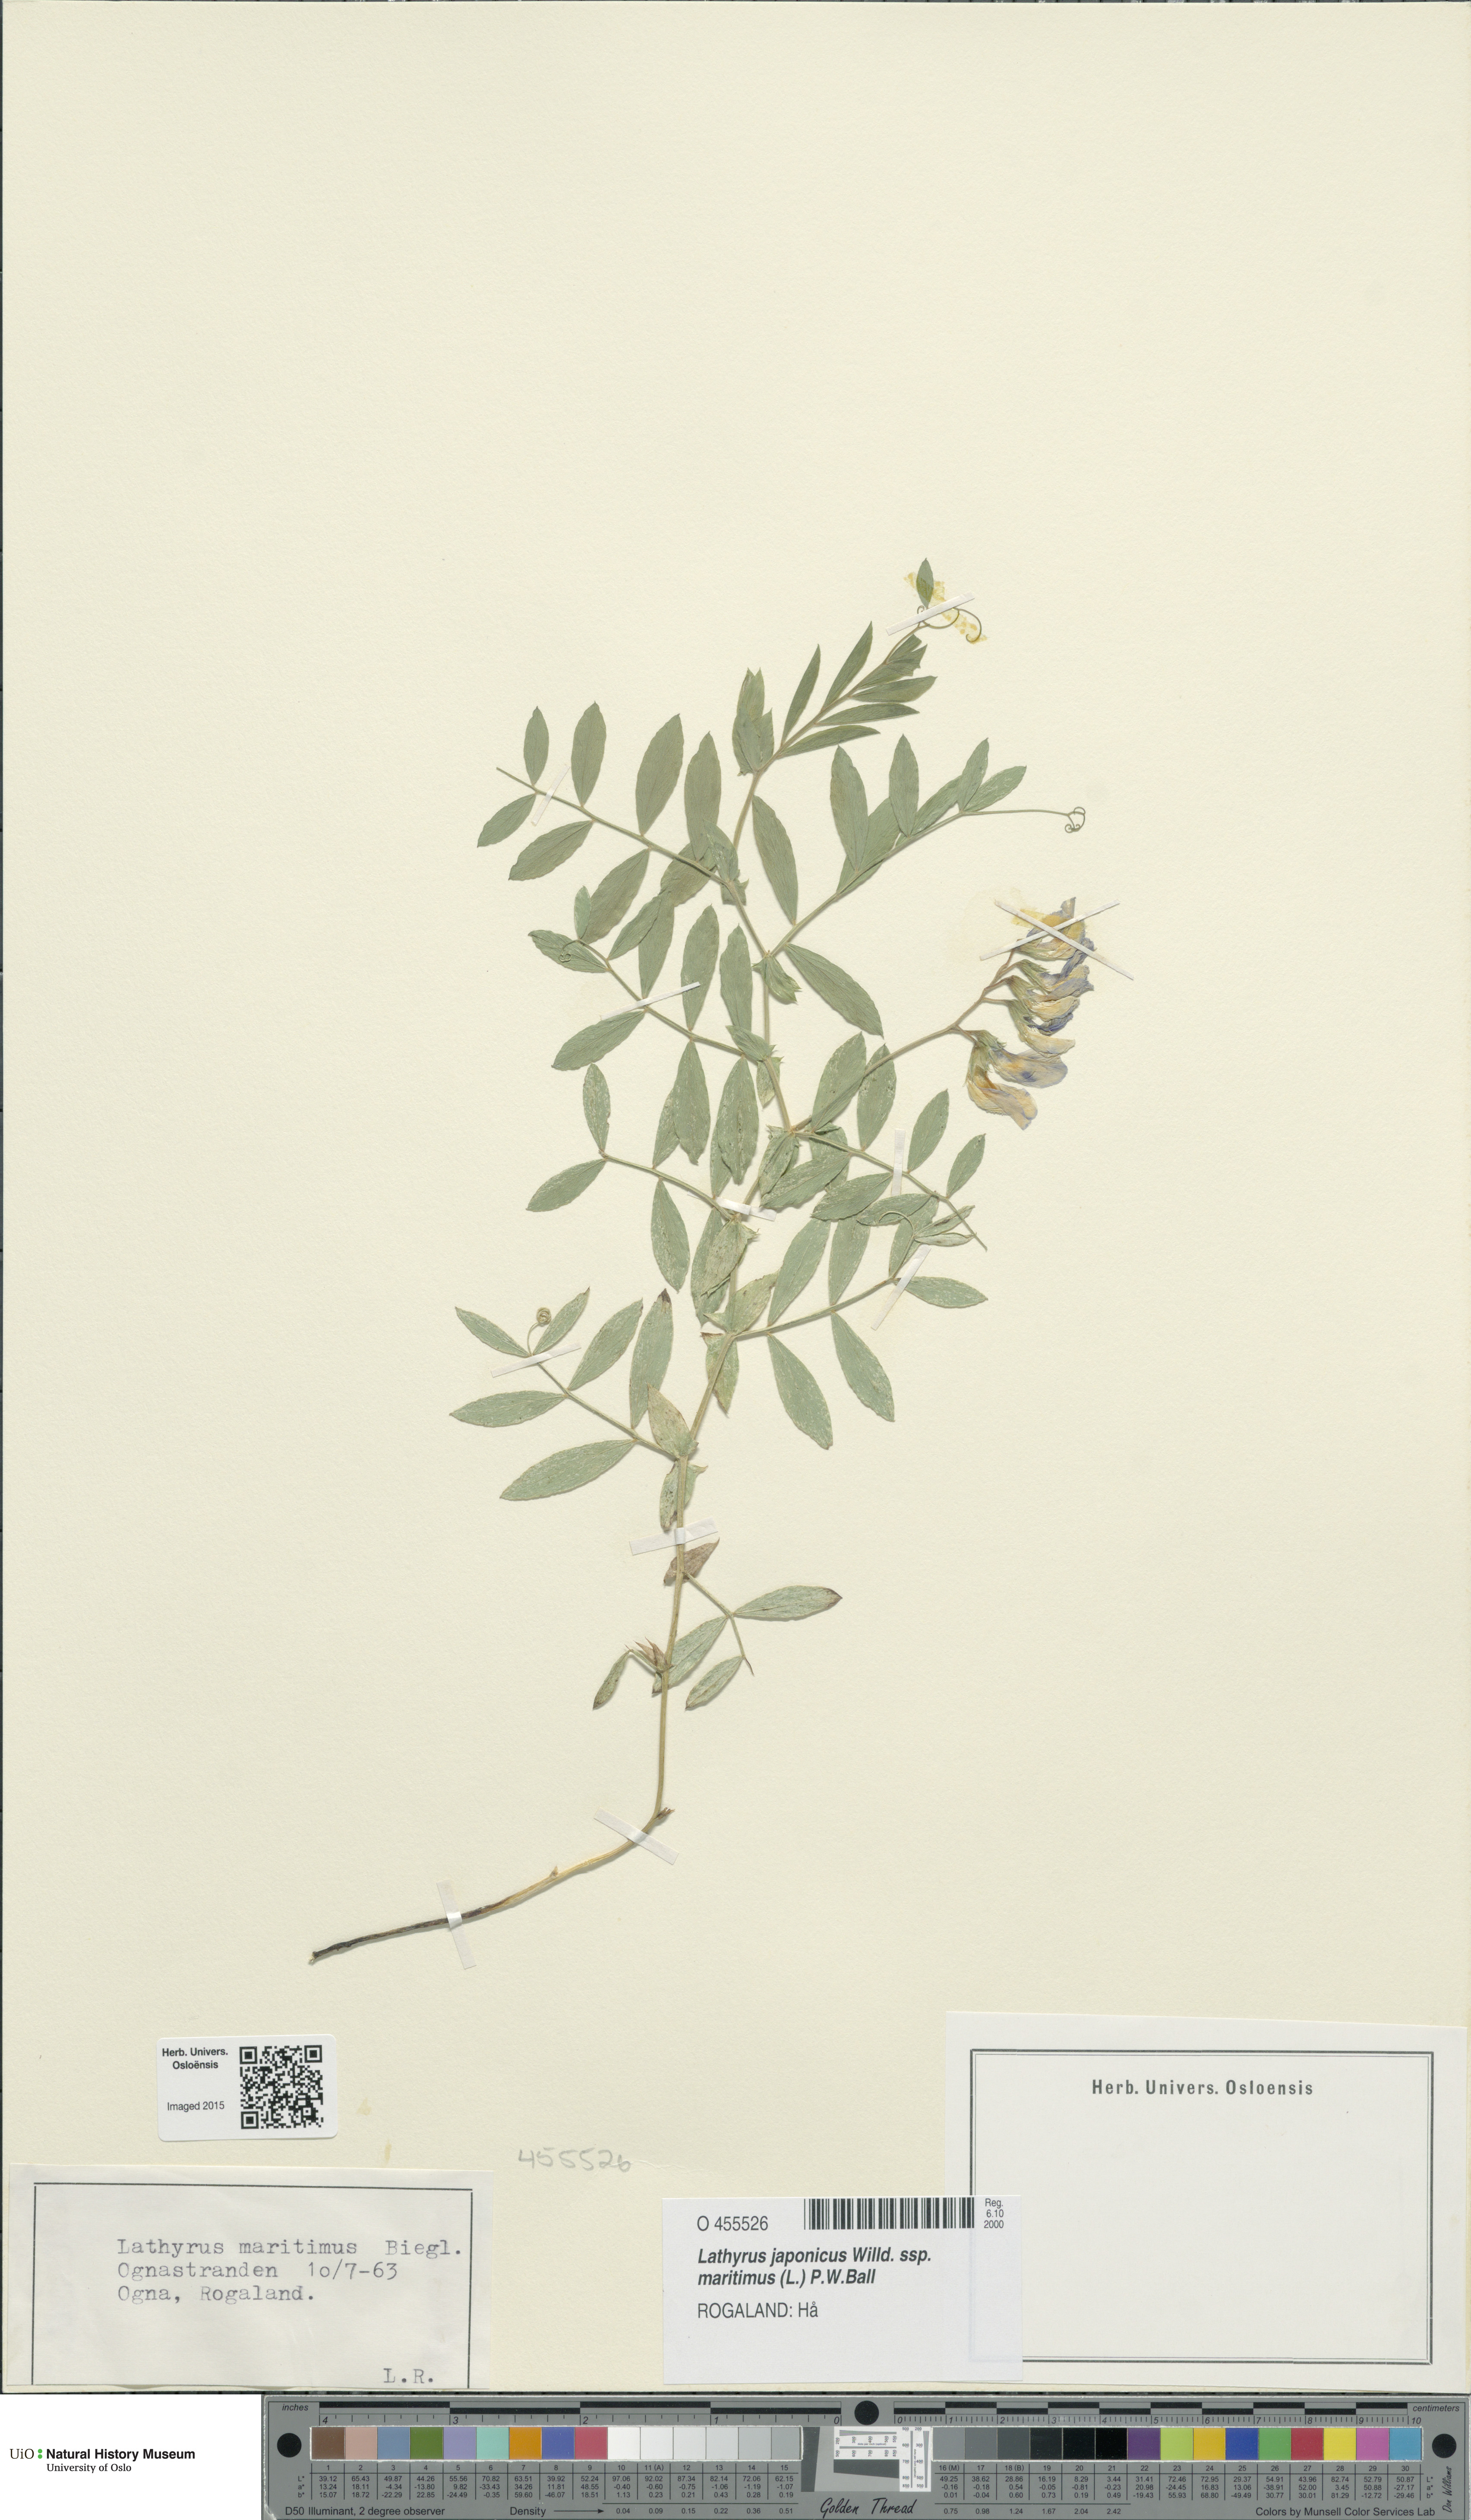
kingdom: Plantae
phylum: Tracheophyta
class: Magnoliopsida
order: Fabales
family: Fabaceae
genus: Lathyrus
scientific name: Lathyrus japonicus
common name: Sea pea
